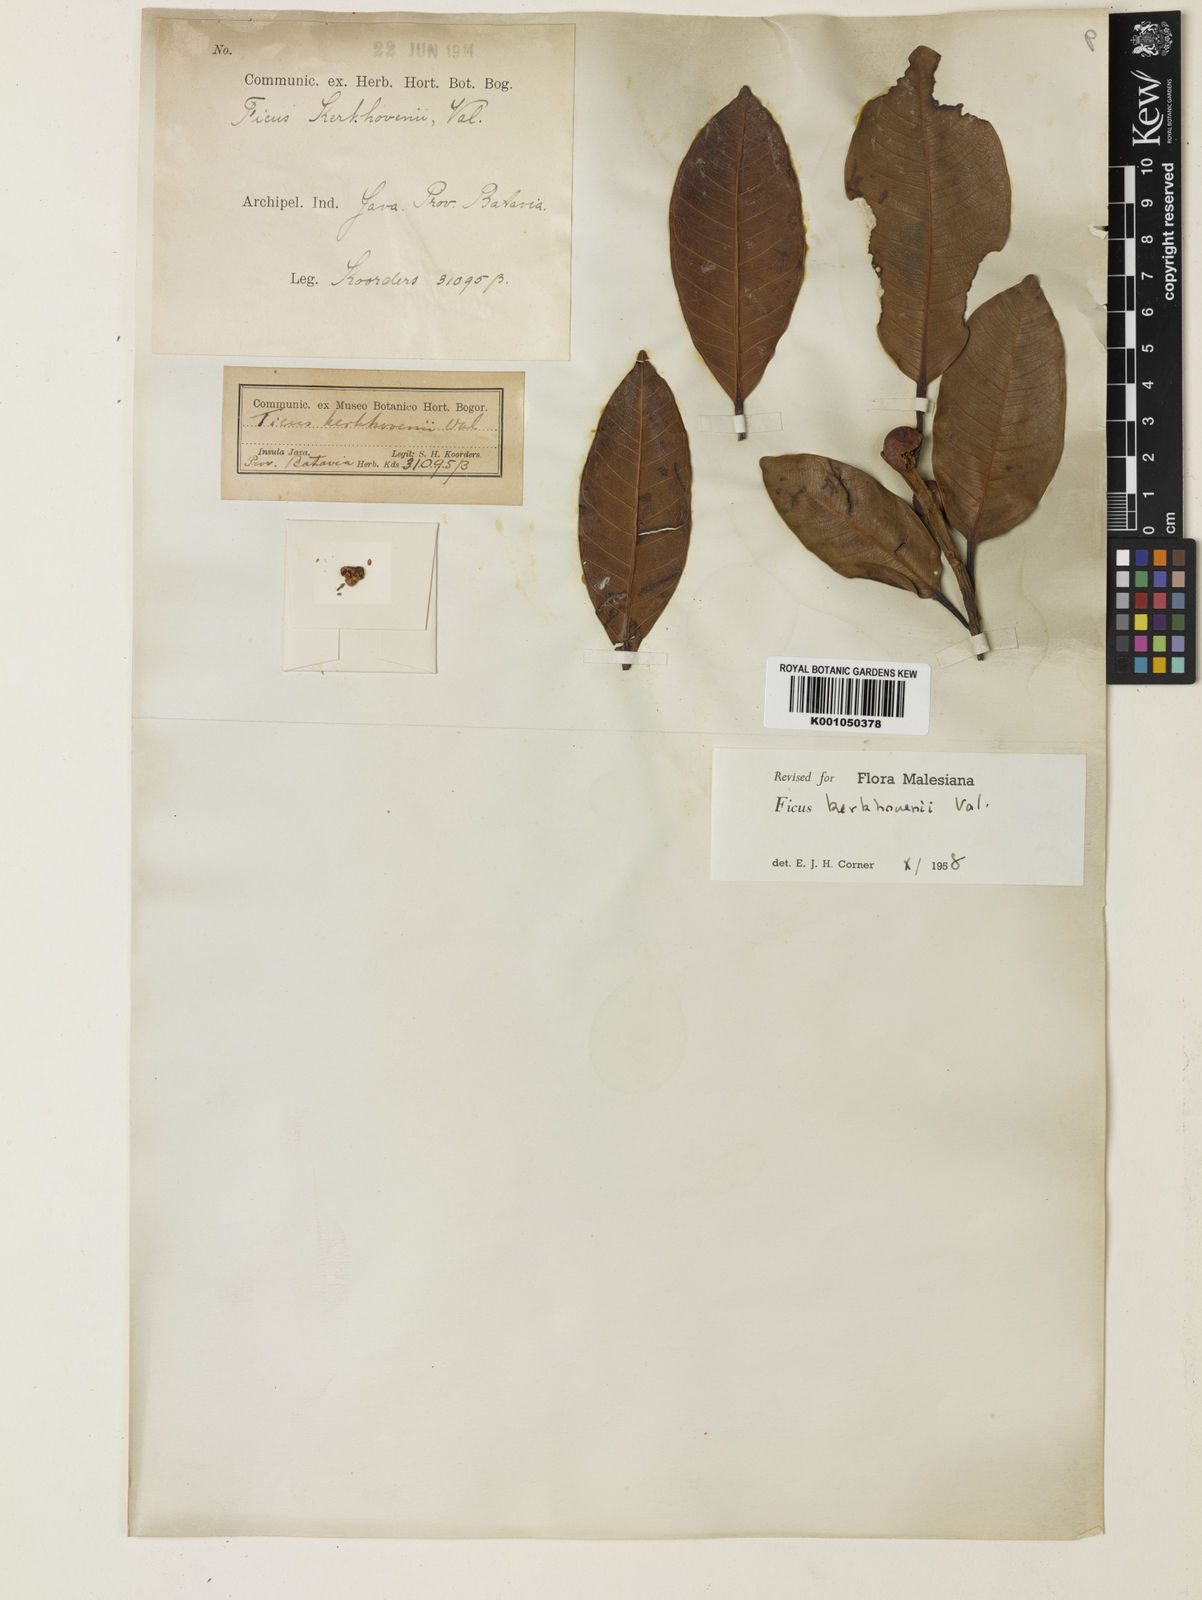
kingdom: Plantae
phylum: Tracheophyta
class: Magnoliopsida
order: Rosales
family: Moraceae
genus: Ficus
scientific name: Ficus kerkhovenii
